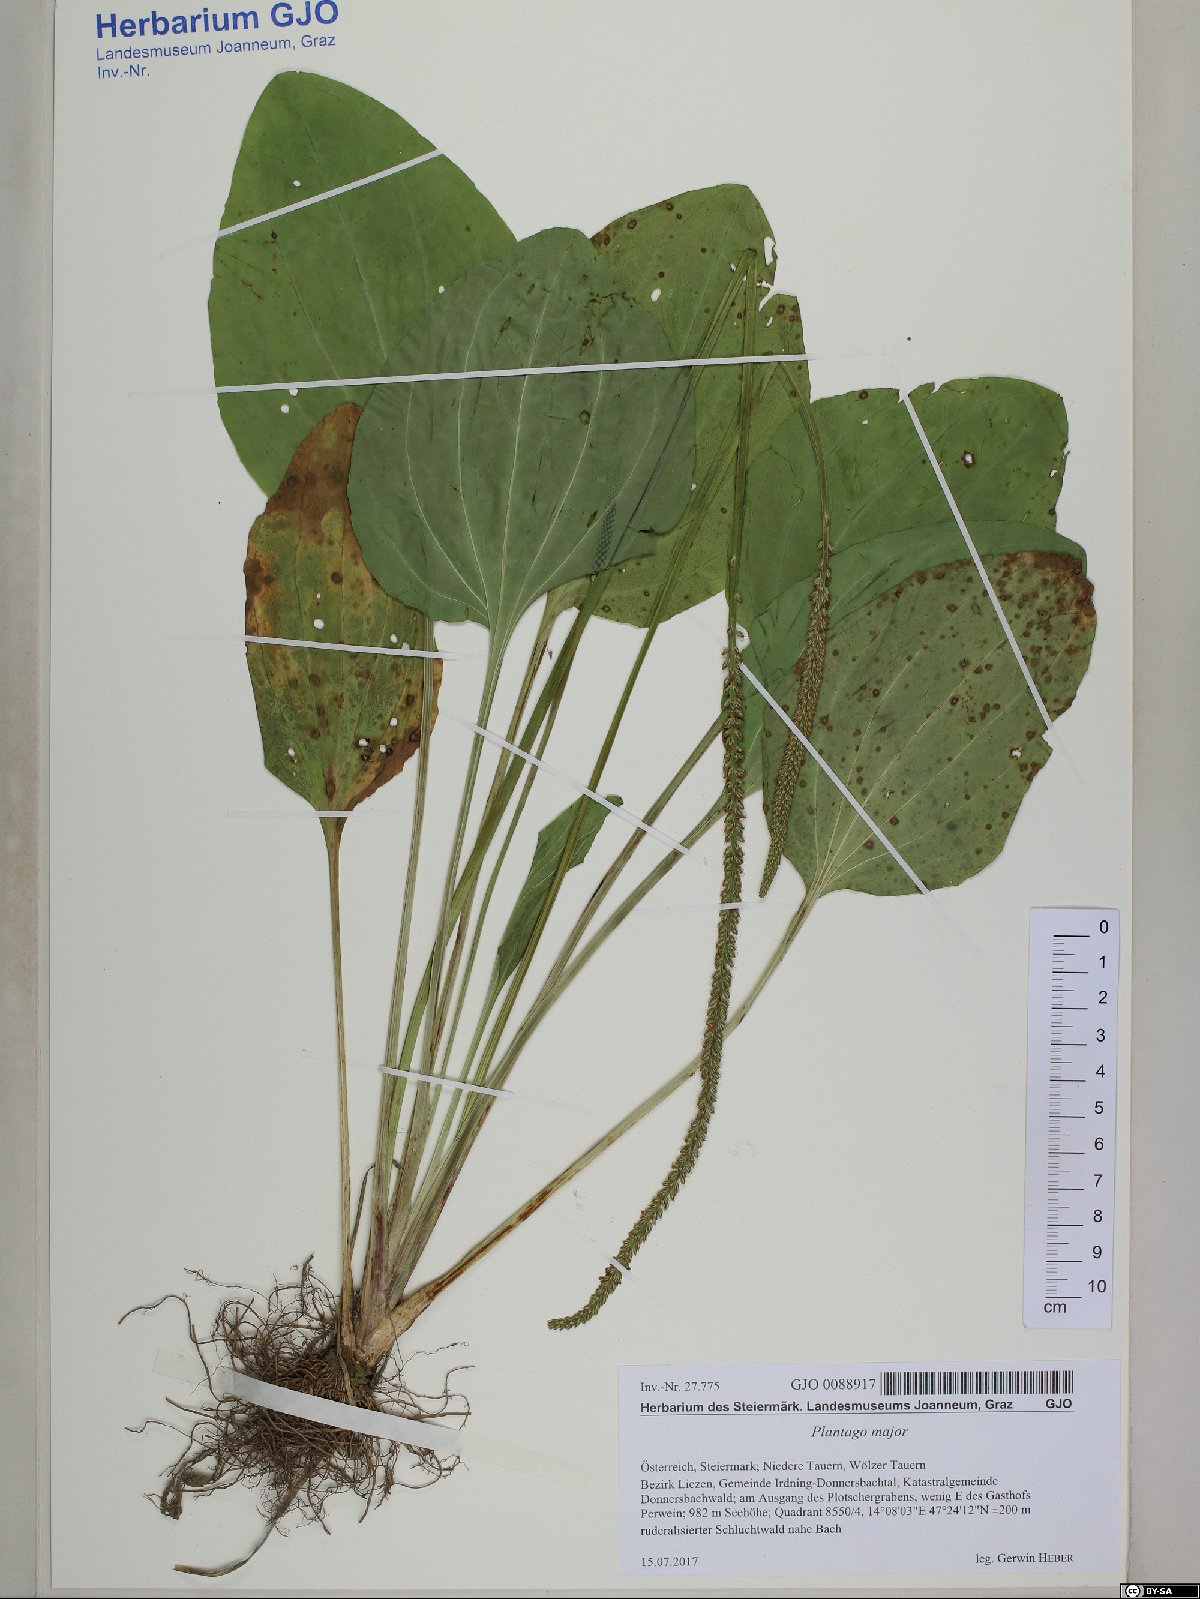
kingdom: Plantae
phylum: Tracheophyta
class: Magnoliopsida
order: Lamiales
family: Plantaginaceae
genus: Plantago
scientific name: Plantago major
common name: Common plantain
